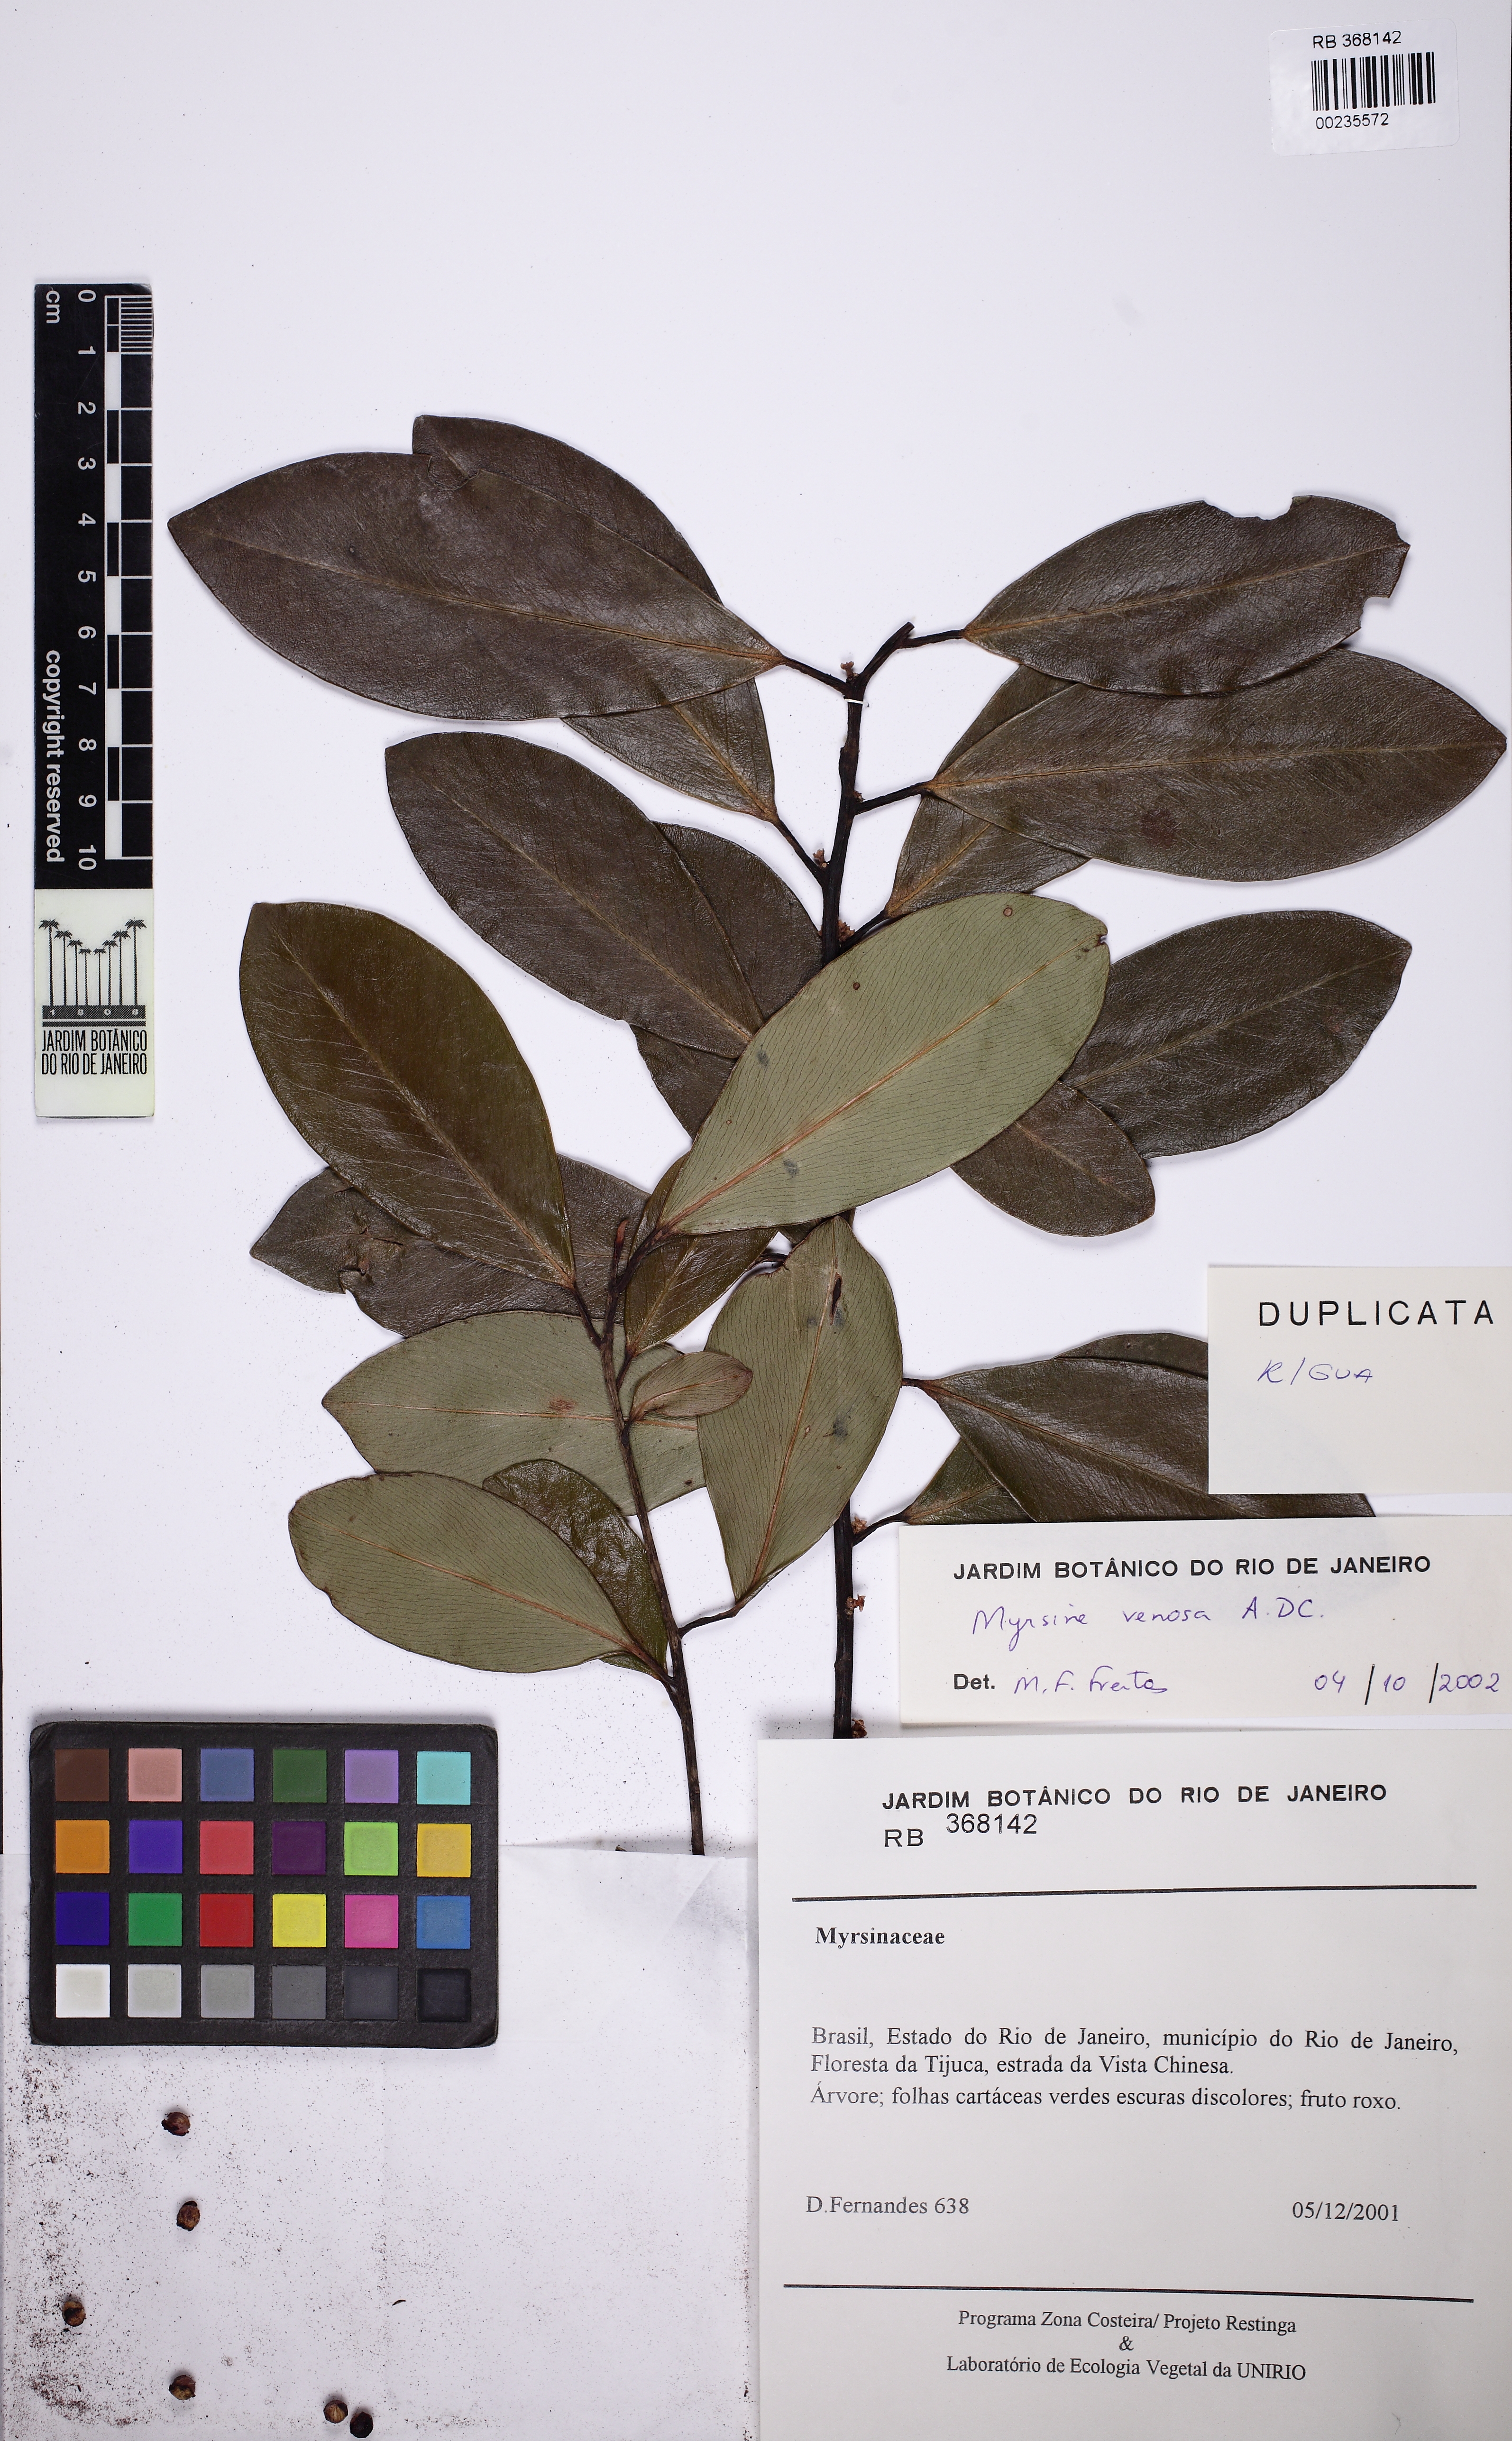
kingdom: Plantae
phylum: Tracheophyta
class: Magnoliopsida
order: Ericales
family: Primulaceae
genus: Myrsine
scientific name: Myrsine venosa
